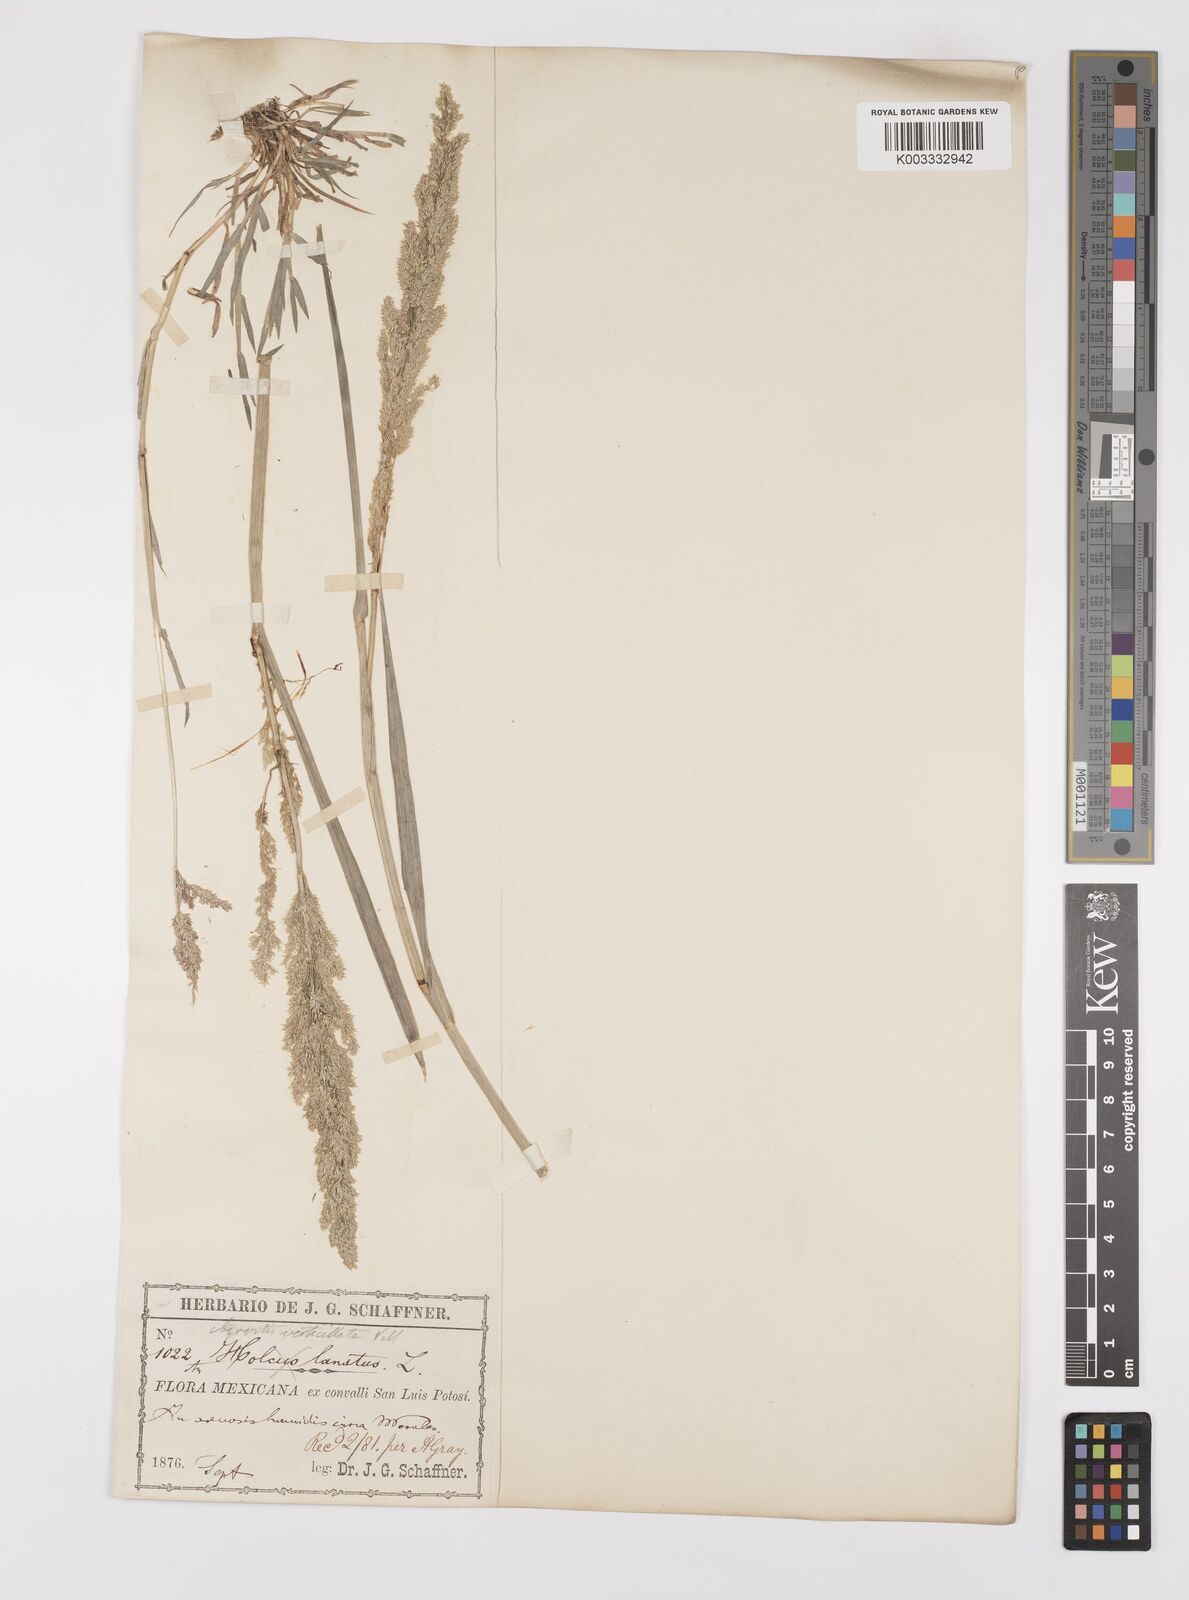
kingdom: Plantae
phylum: Tracheophyta
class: Liliopsida
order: Poales
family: Poaceae
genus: Polypogon
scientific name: Polypogon viridis
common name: Water bent
